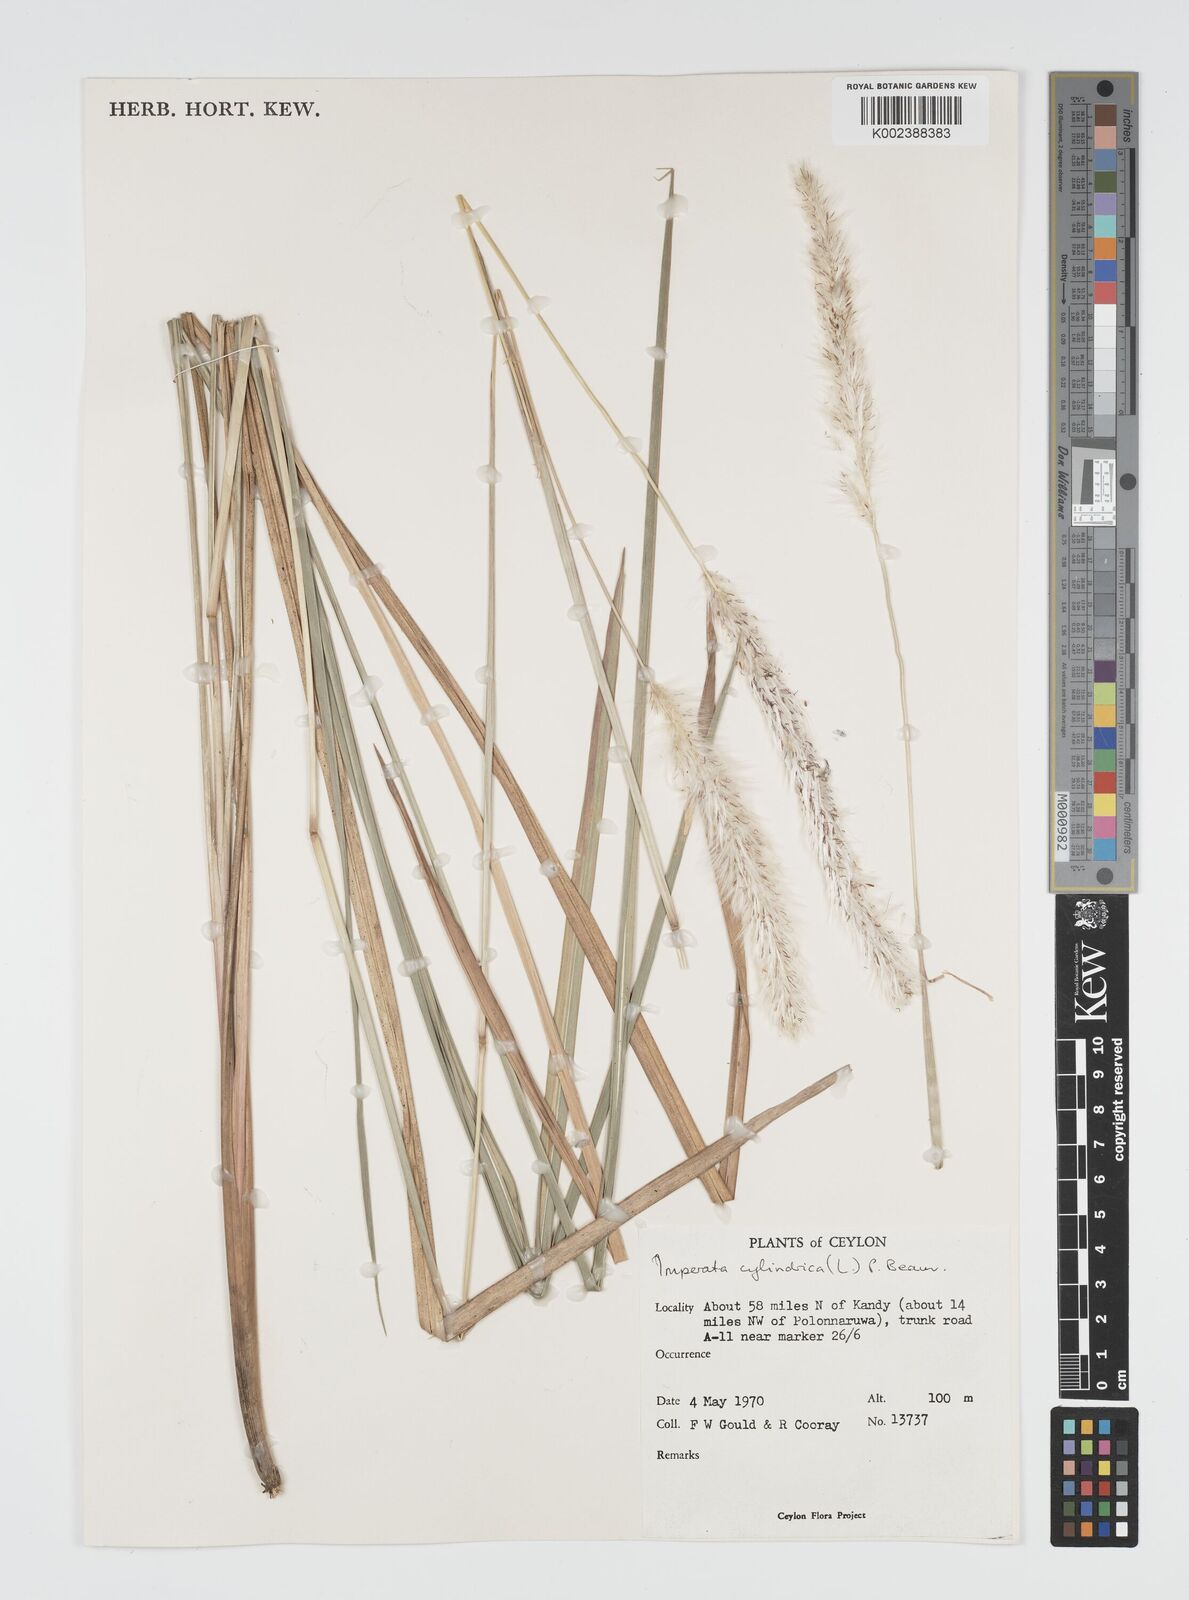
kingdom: Plantae
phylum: Tracheophyta
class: Liliopsida
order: Poales
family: Poaceae
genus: Imperata
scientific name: Imperata cylindrica
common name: Cogongrass
